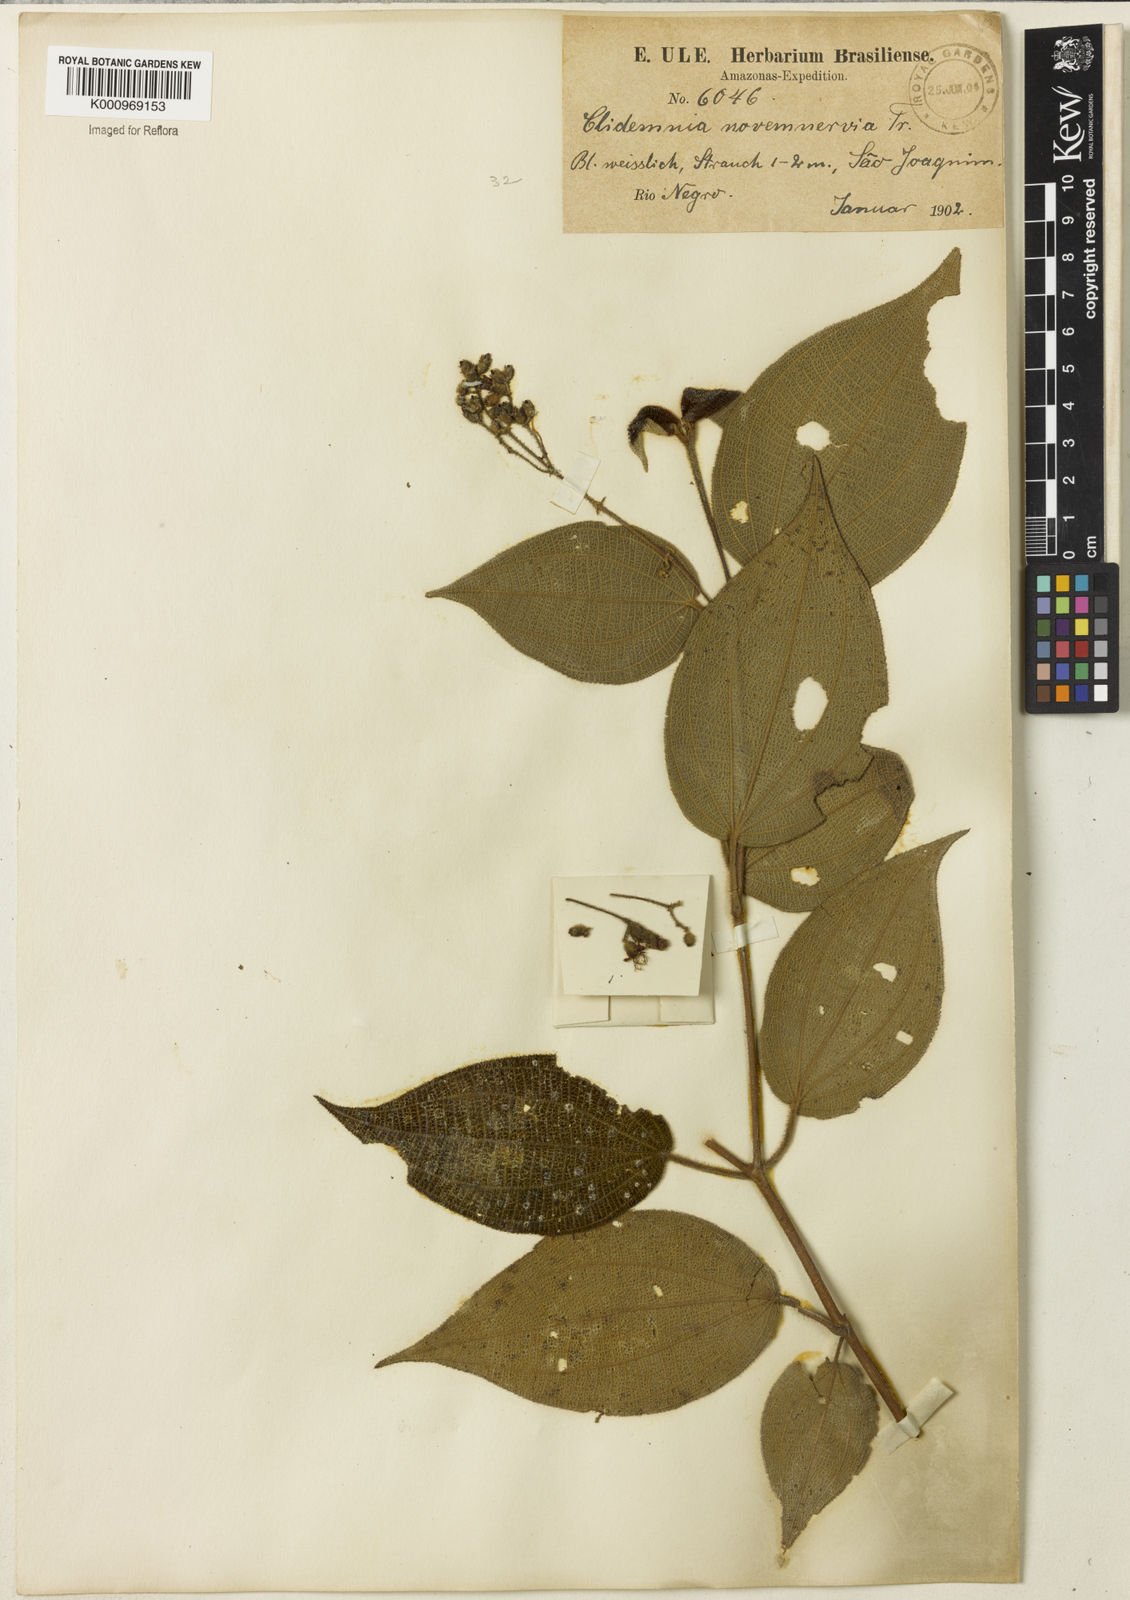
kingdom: Plantae
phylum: Tracheophyta
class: Magnoliopsida
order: Myrtales
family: Melastomataceae
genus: Miconia
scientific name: Miconia bullatifolia
